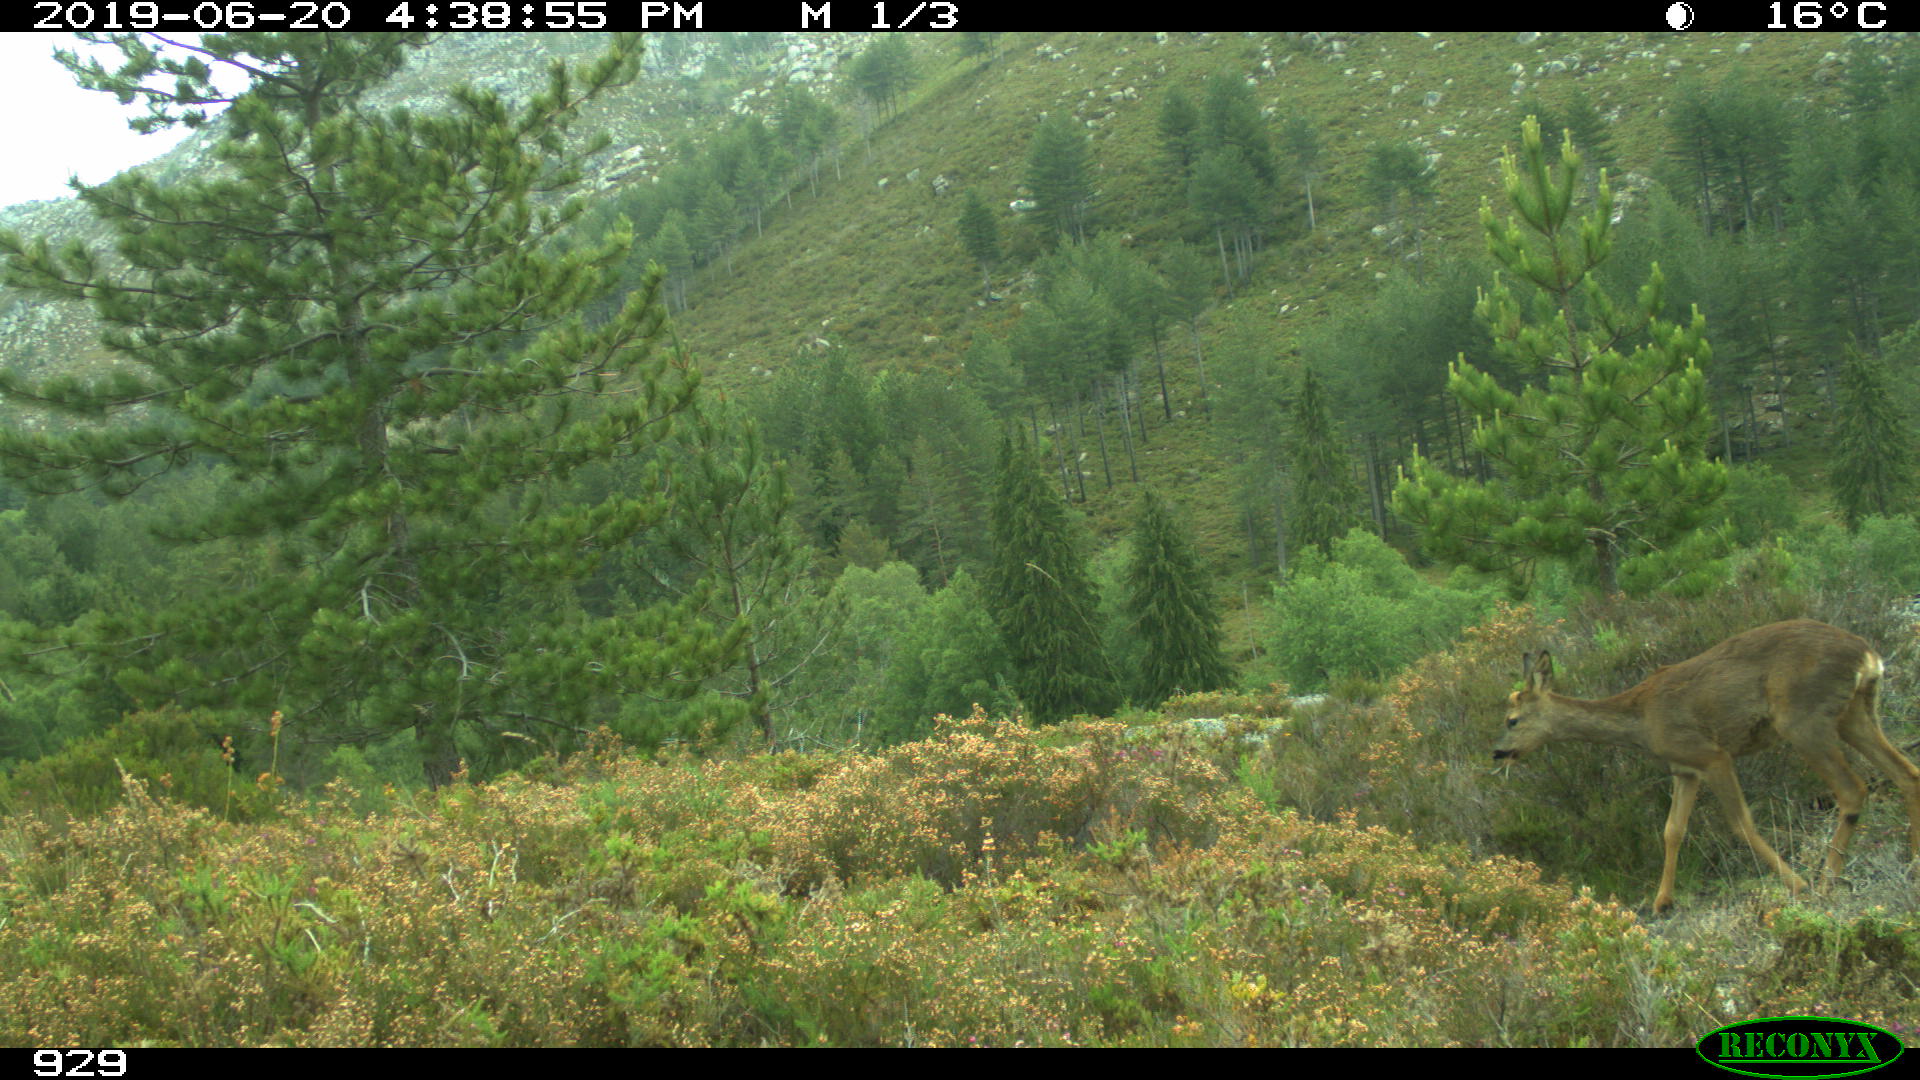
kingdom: Animalia
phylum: Chordata
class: Mammalia
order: Artiodactyla
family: Cervidae
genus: Capreolus
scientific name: Capreolus capreolus
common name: Western roe deer
